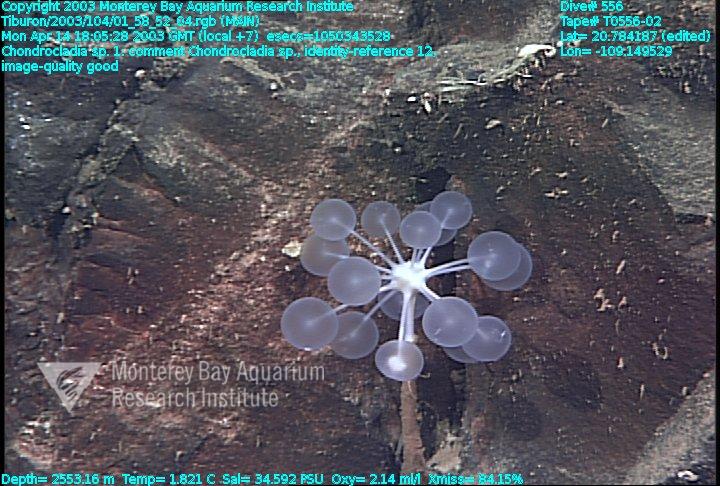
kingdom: Animalia
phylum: Porifera
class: Demospongiae
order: Poecilosclerida
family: Cladorhizidae
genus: Chondrocladia
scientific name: Chondrocladia
